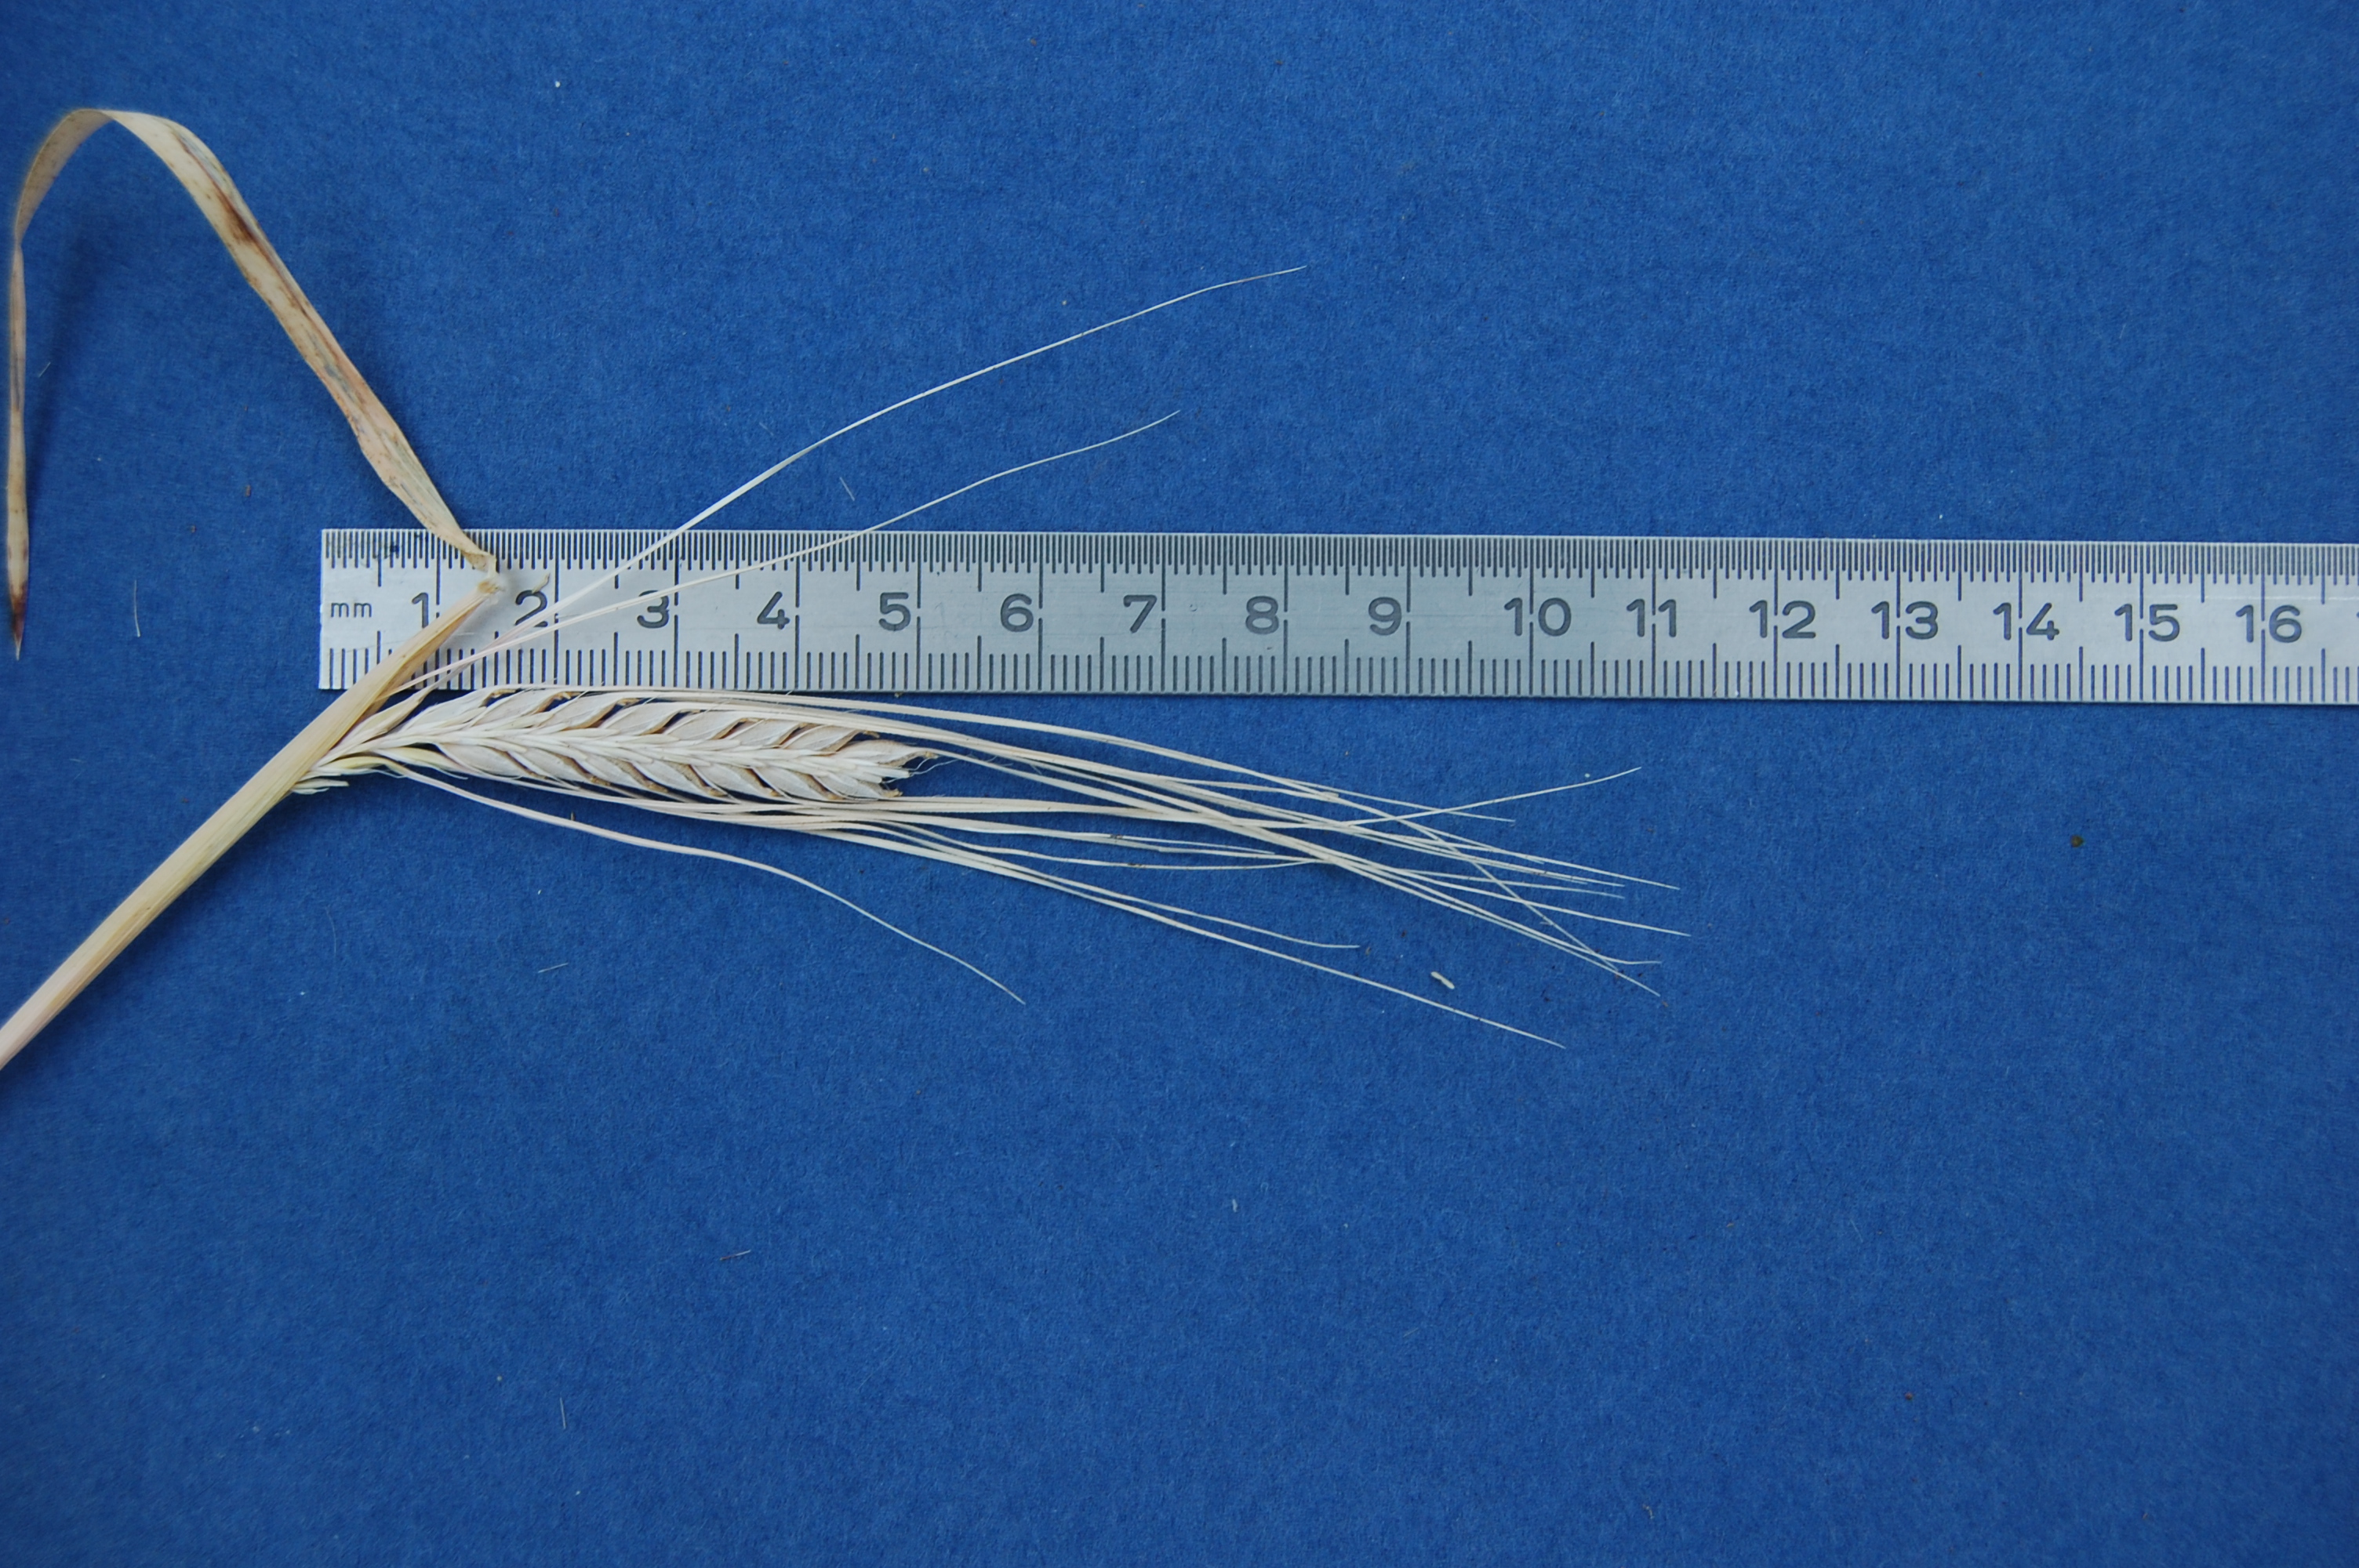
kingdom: Plantae
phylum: Tracheophyta
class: Liliopsida
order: Poales
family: Poaceae
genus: Hordeum
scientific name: Hordeum vulgare
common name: Common barley
